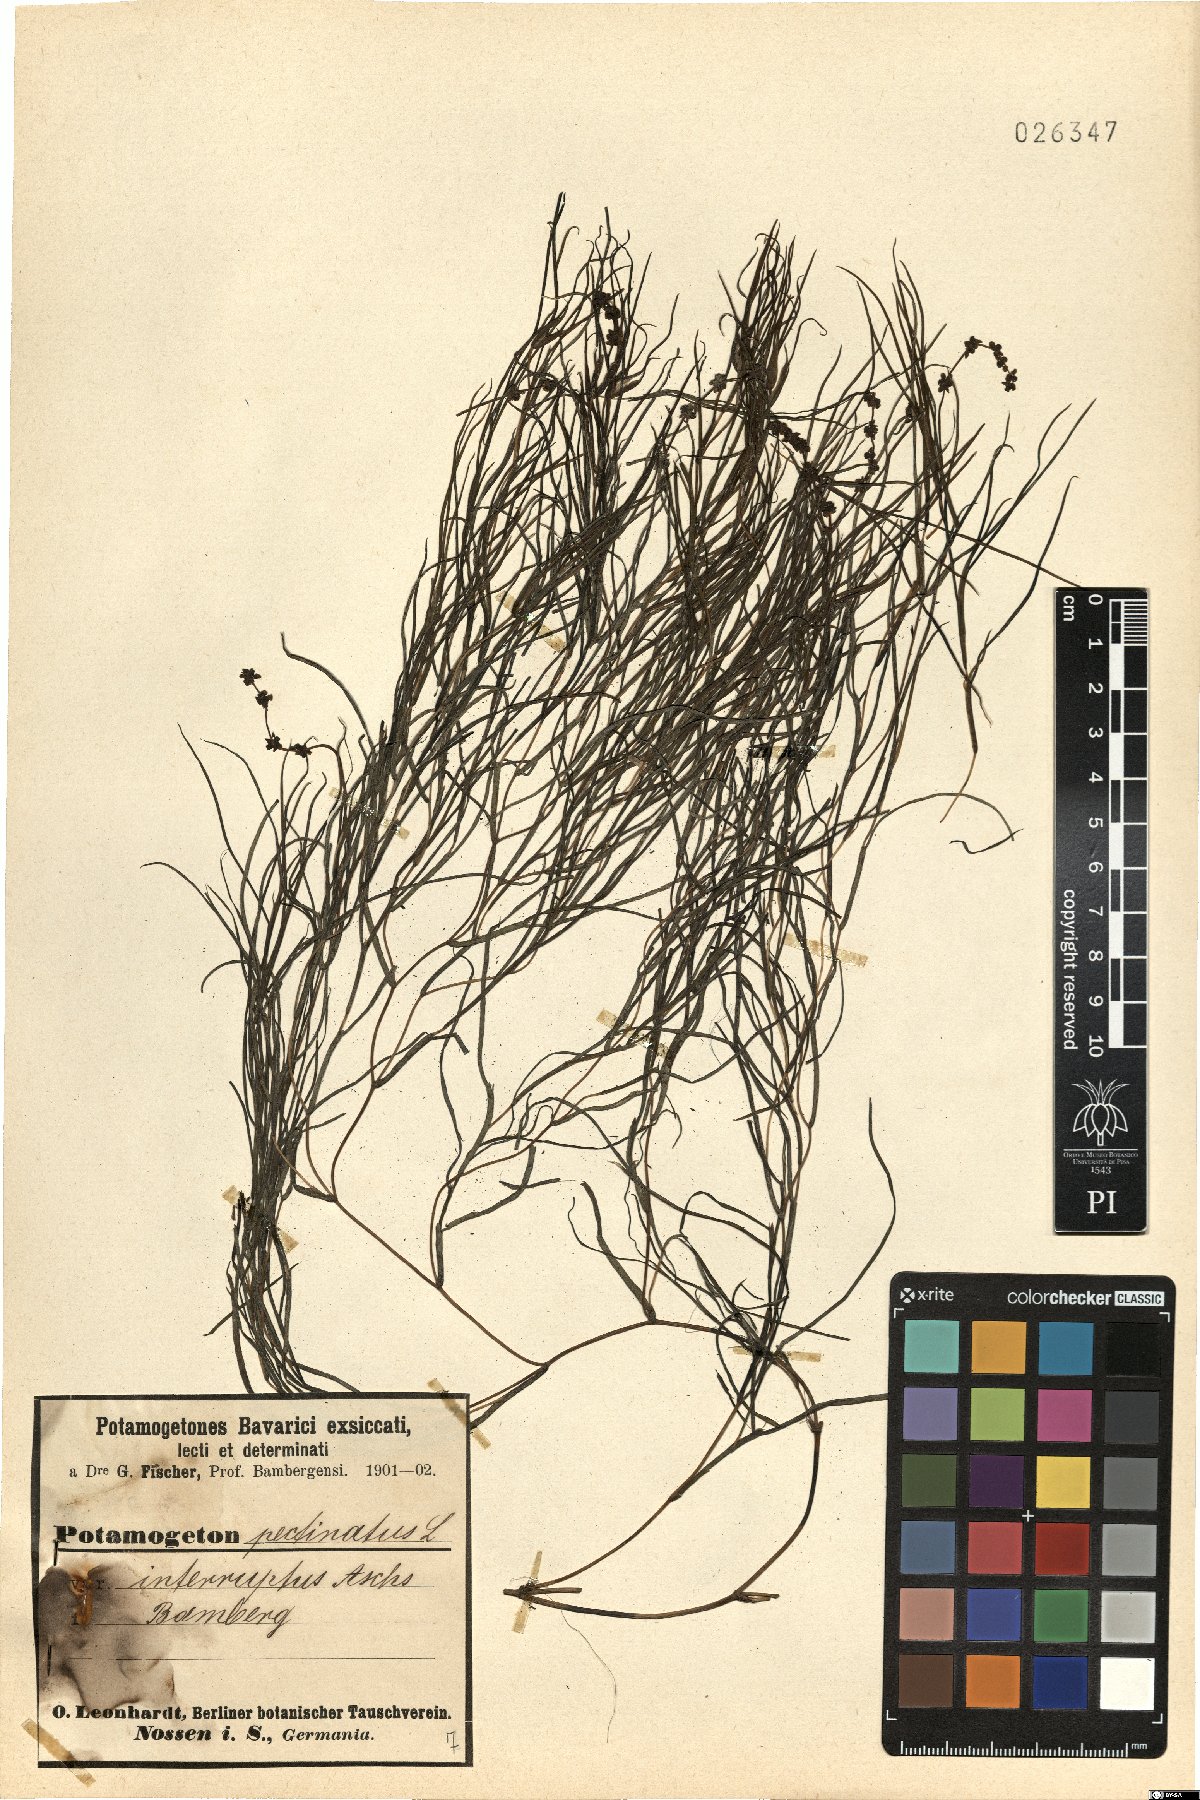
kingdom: Plantae
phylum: Tracheophyta
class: Liliopsida
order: Alismatales
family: Potamogetonaceae
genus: Stuckenia
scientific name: Stuckenia pectinata
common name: Sago pondweed
